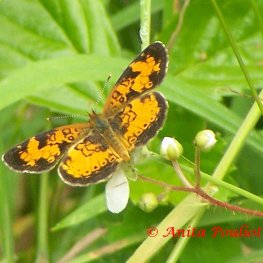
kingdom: Animalia
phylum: Arthropoda
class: Insecta
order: Lepidoptera
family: Nymphalidae
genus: Phyciodes
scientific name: Phyciodes tharos
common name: Northern Crescent
